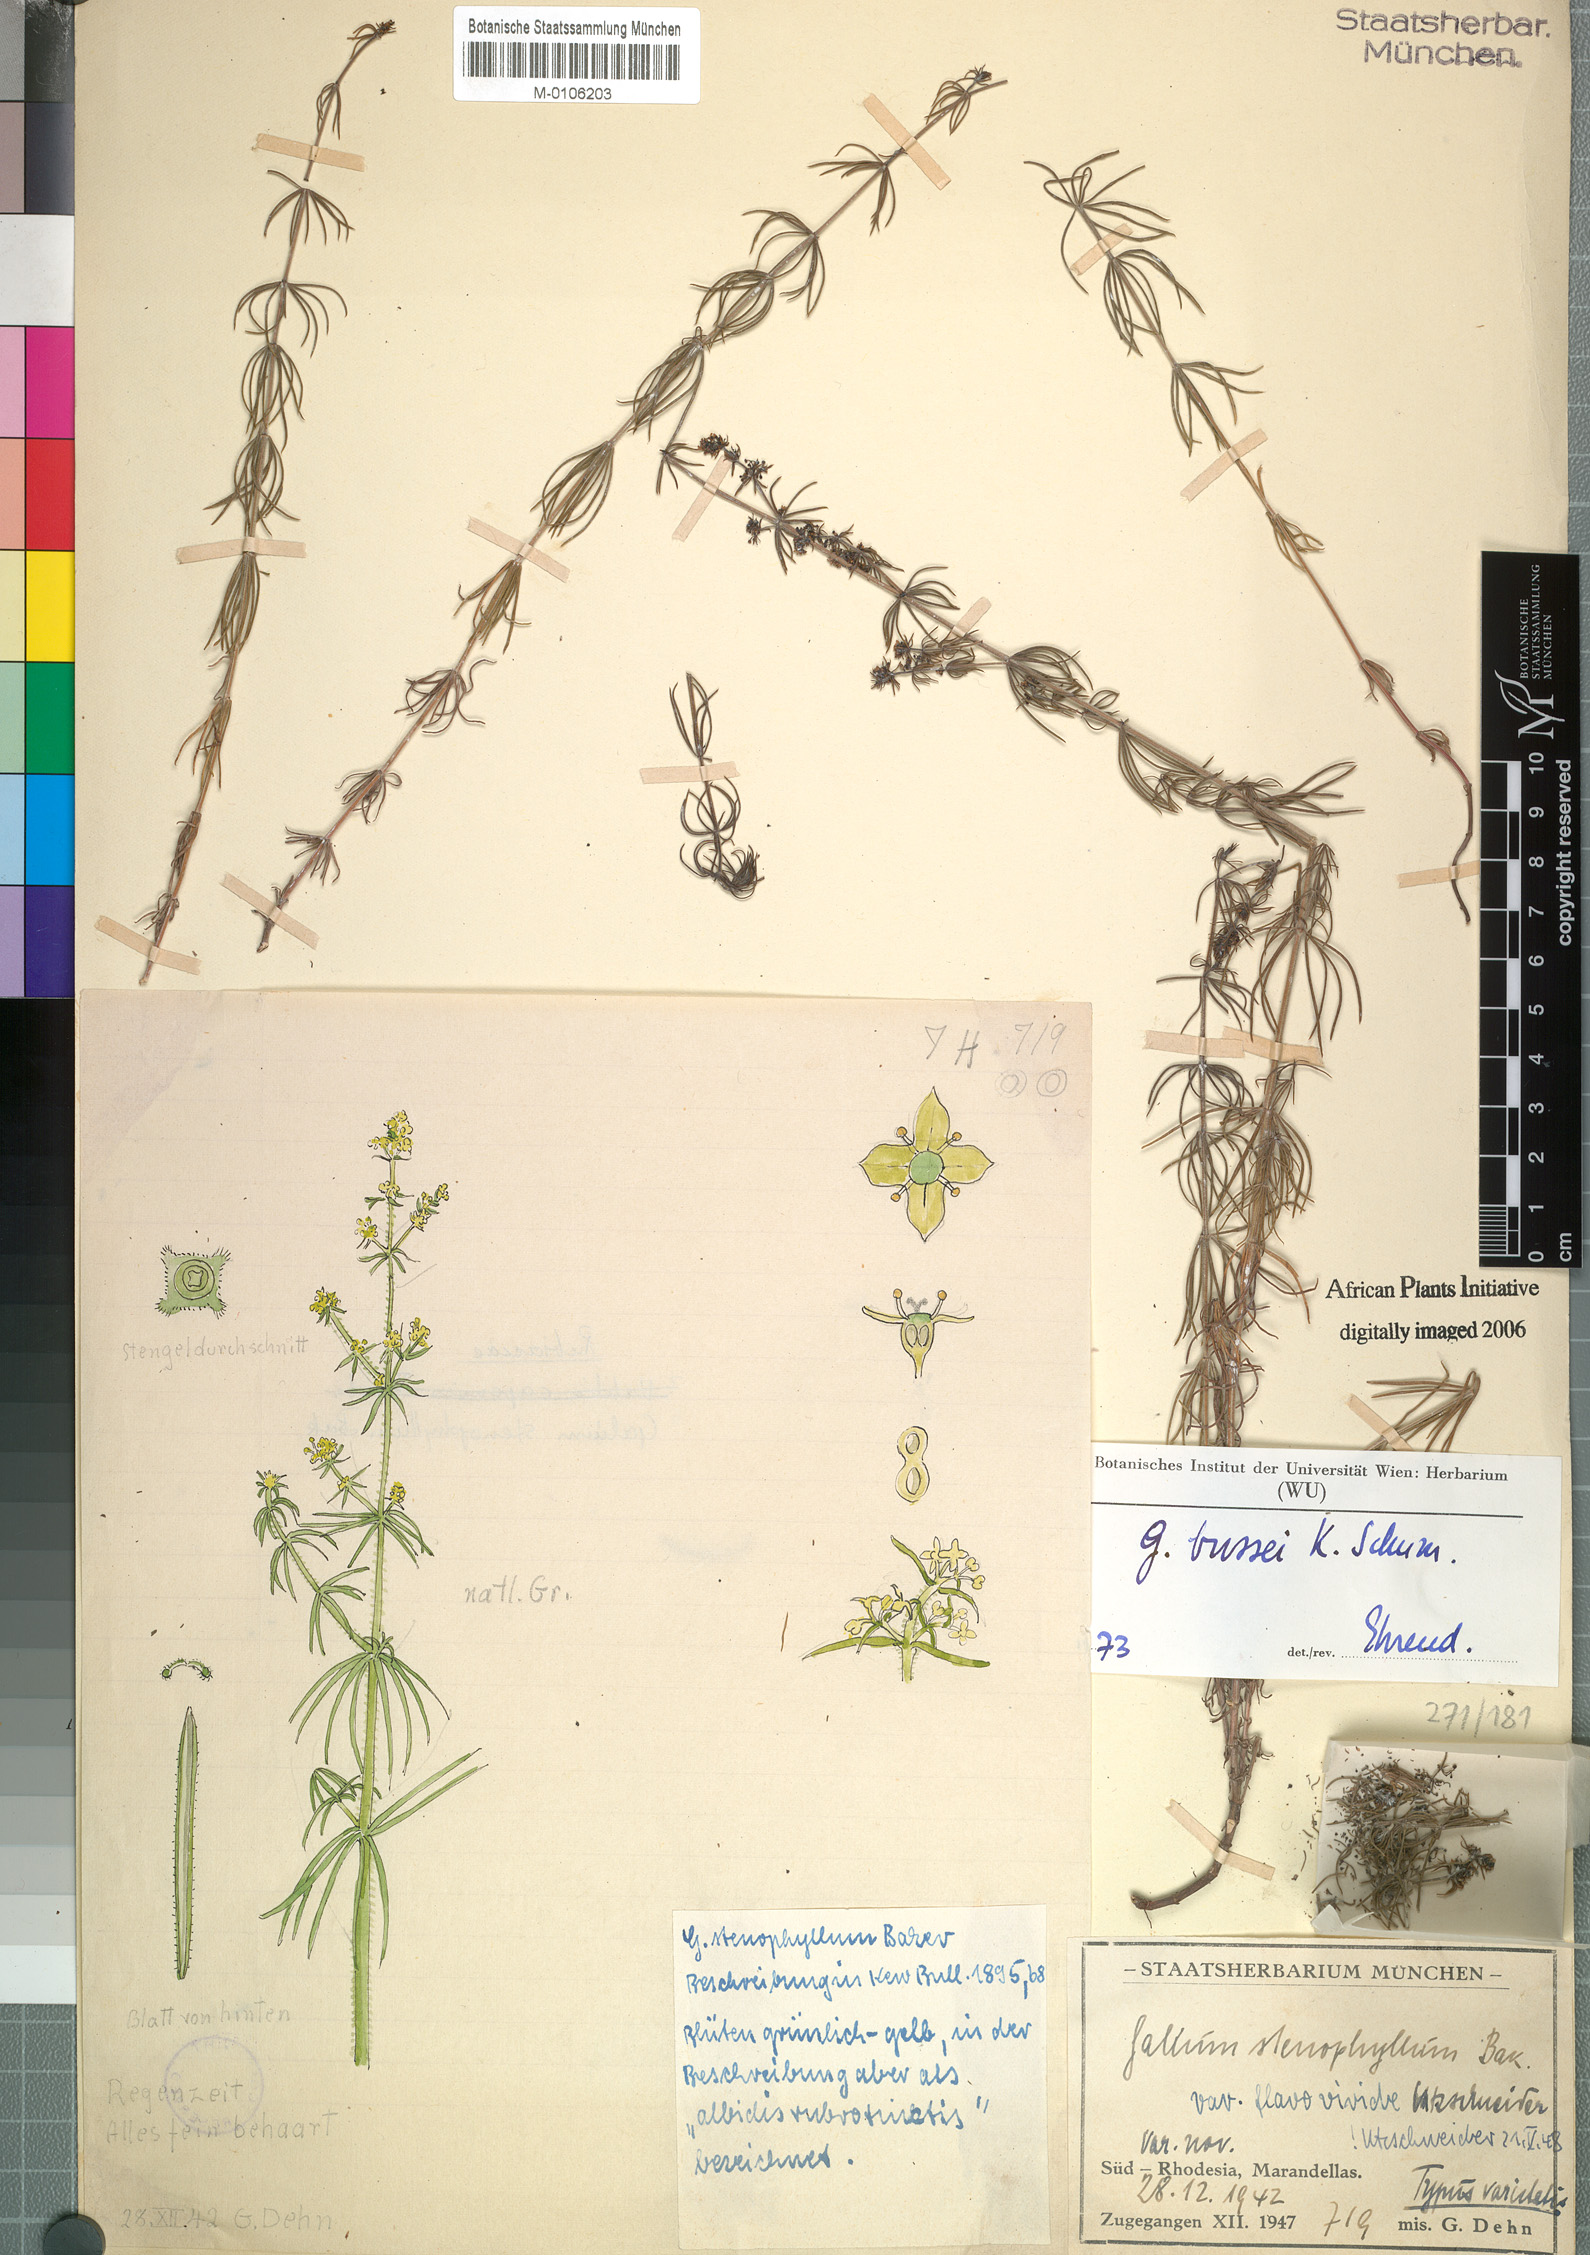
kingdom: Plantae
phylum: Tracheophyta
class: Magnoliopsida
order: Gentianales
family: Rubiaceae
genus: Galium
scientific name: Galium bussei
